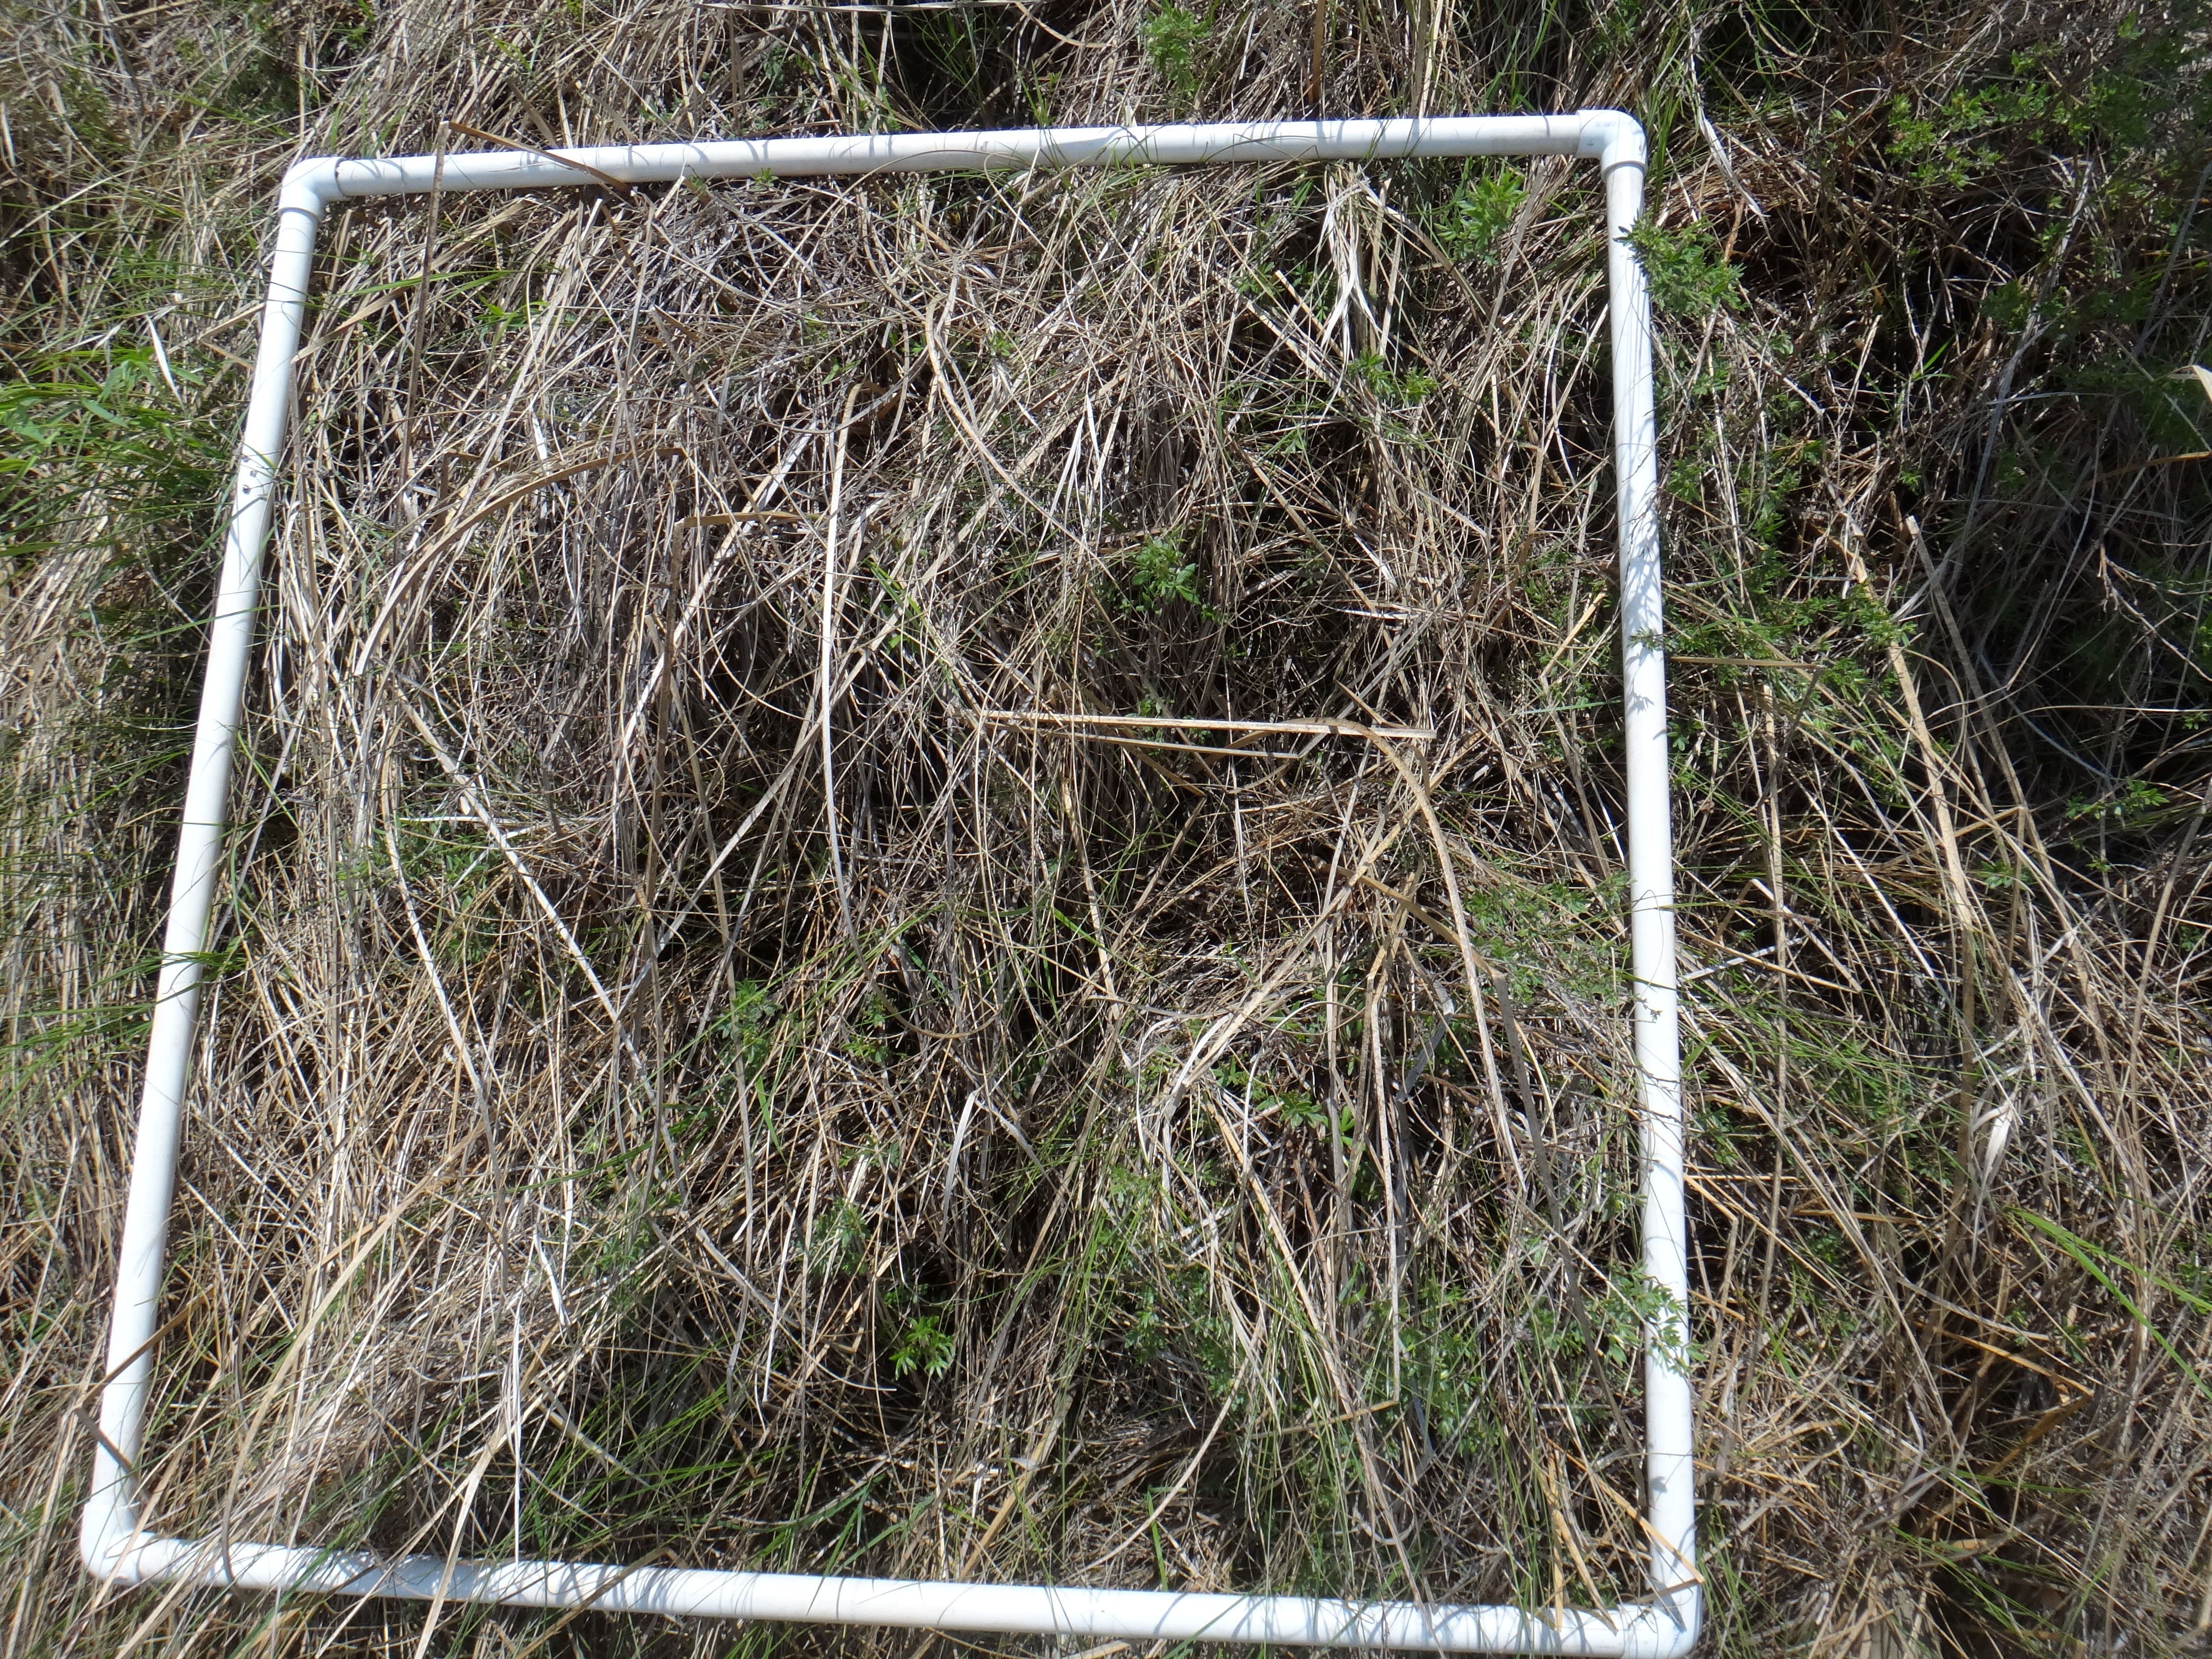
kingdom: Plantae
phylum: Tracheophyta
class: Magnoliopsida
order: Asterales
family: Campanulaceae
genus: Palustricodon
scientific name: Palustricodon aparinoides
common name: Bedstraw bellflower
